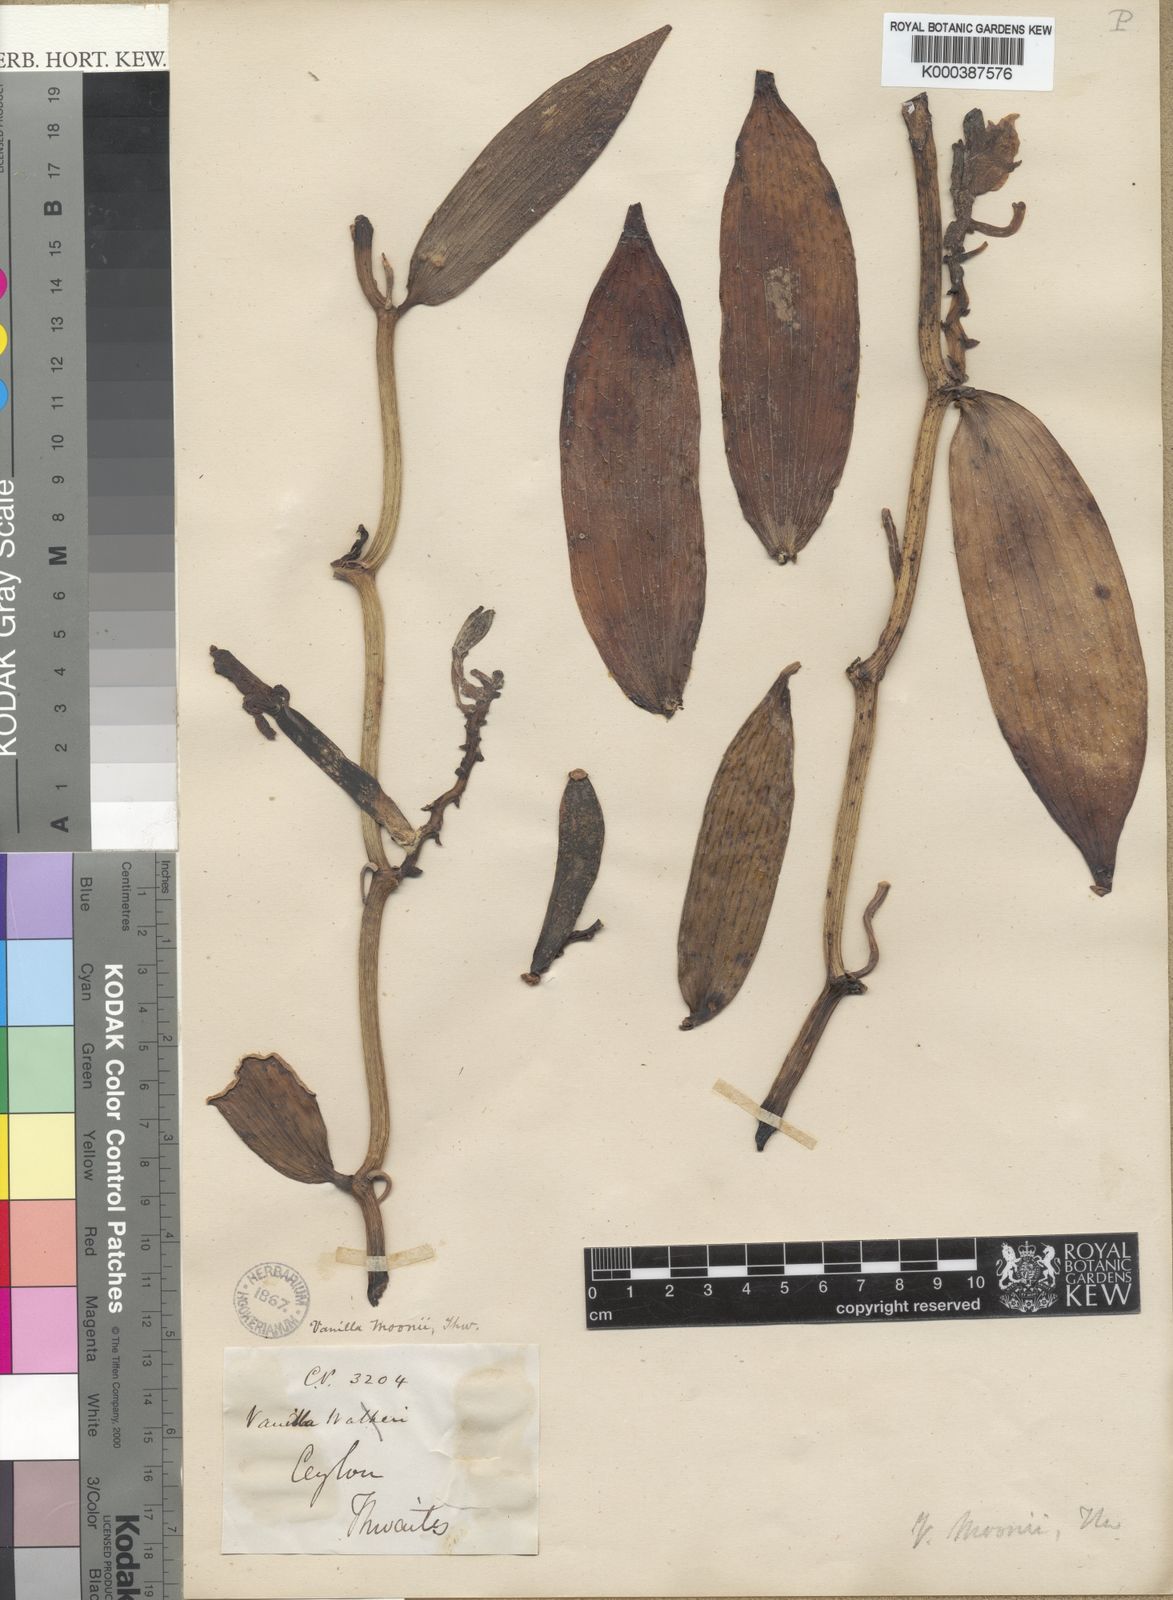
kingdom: Plantae
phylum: Tracheophyta
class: Liliopsida
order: Asparagales
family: Orchidaceae
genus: Vanilla
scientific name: Vanilla moonii
